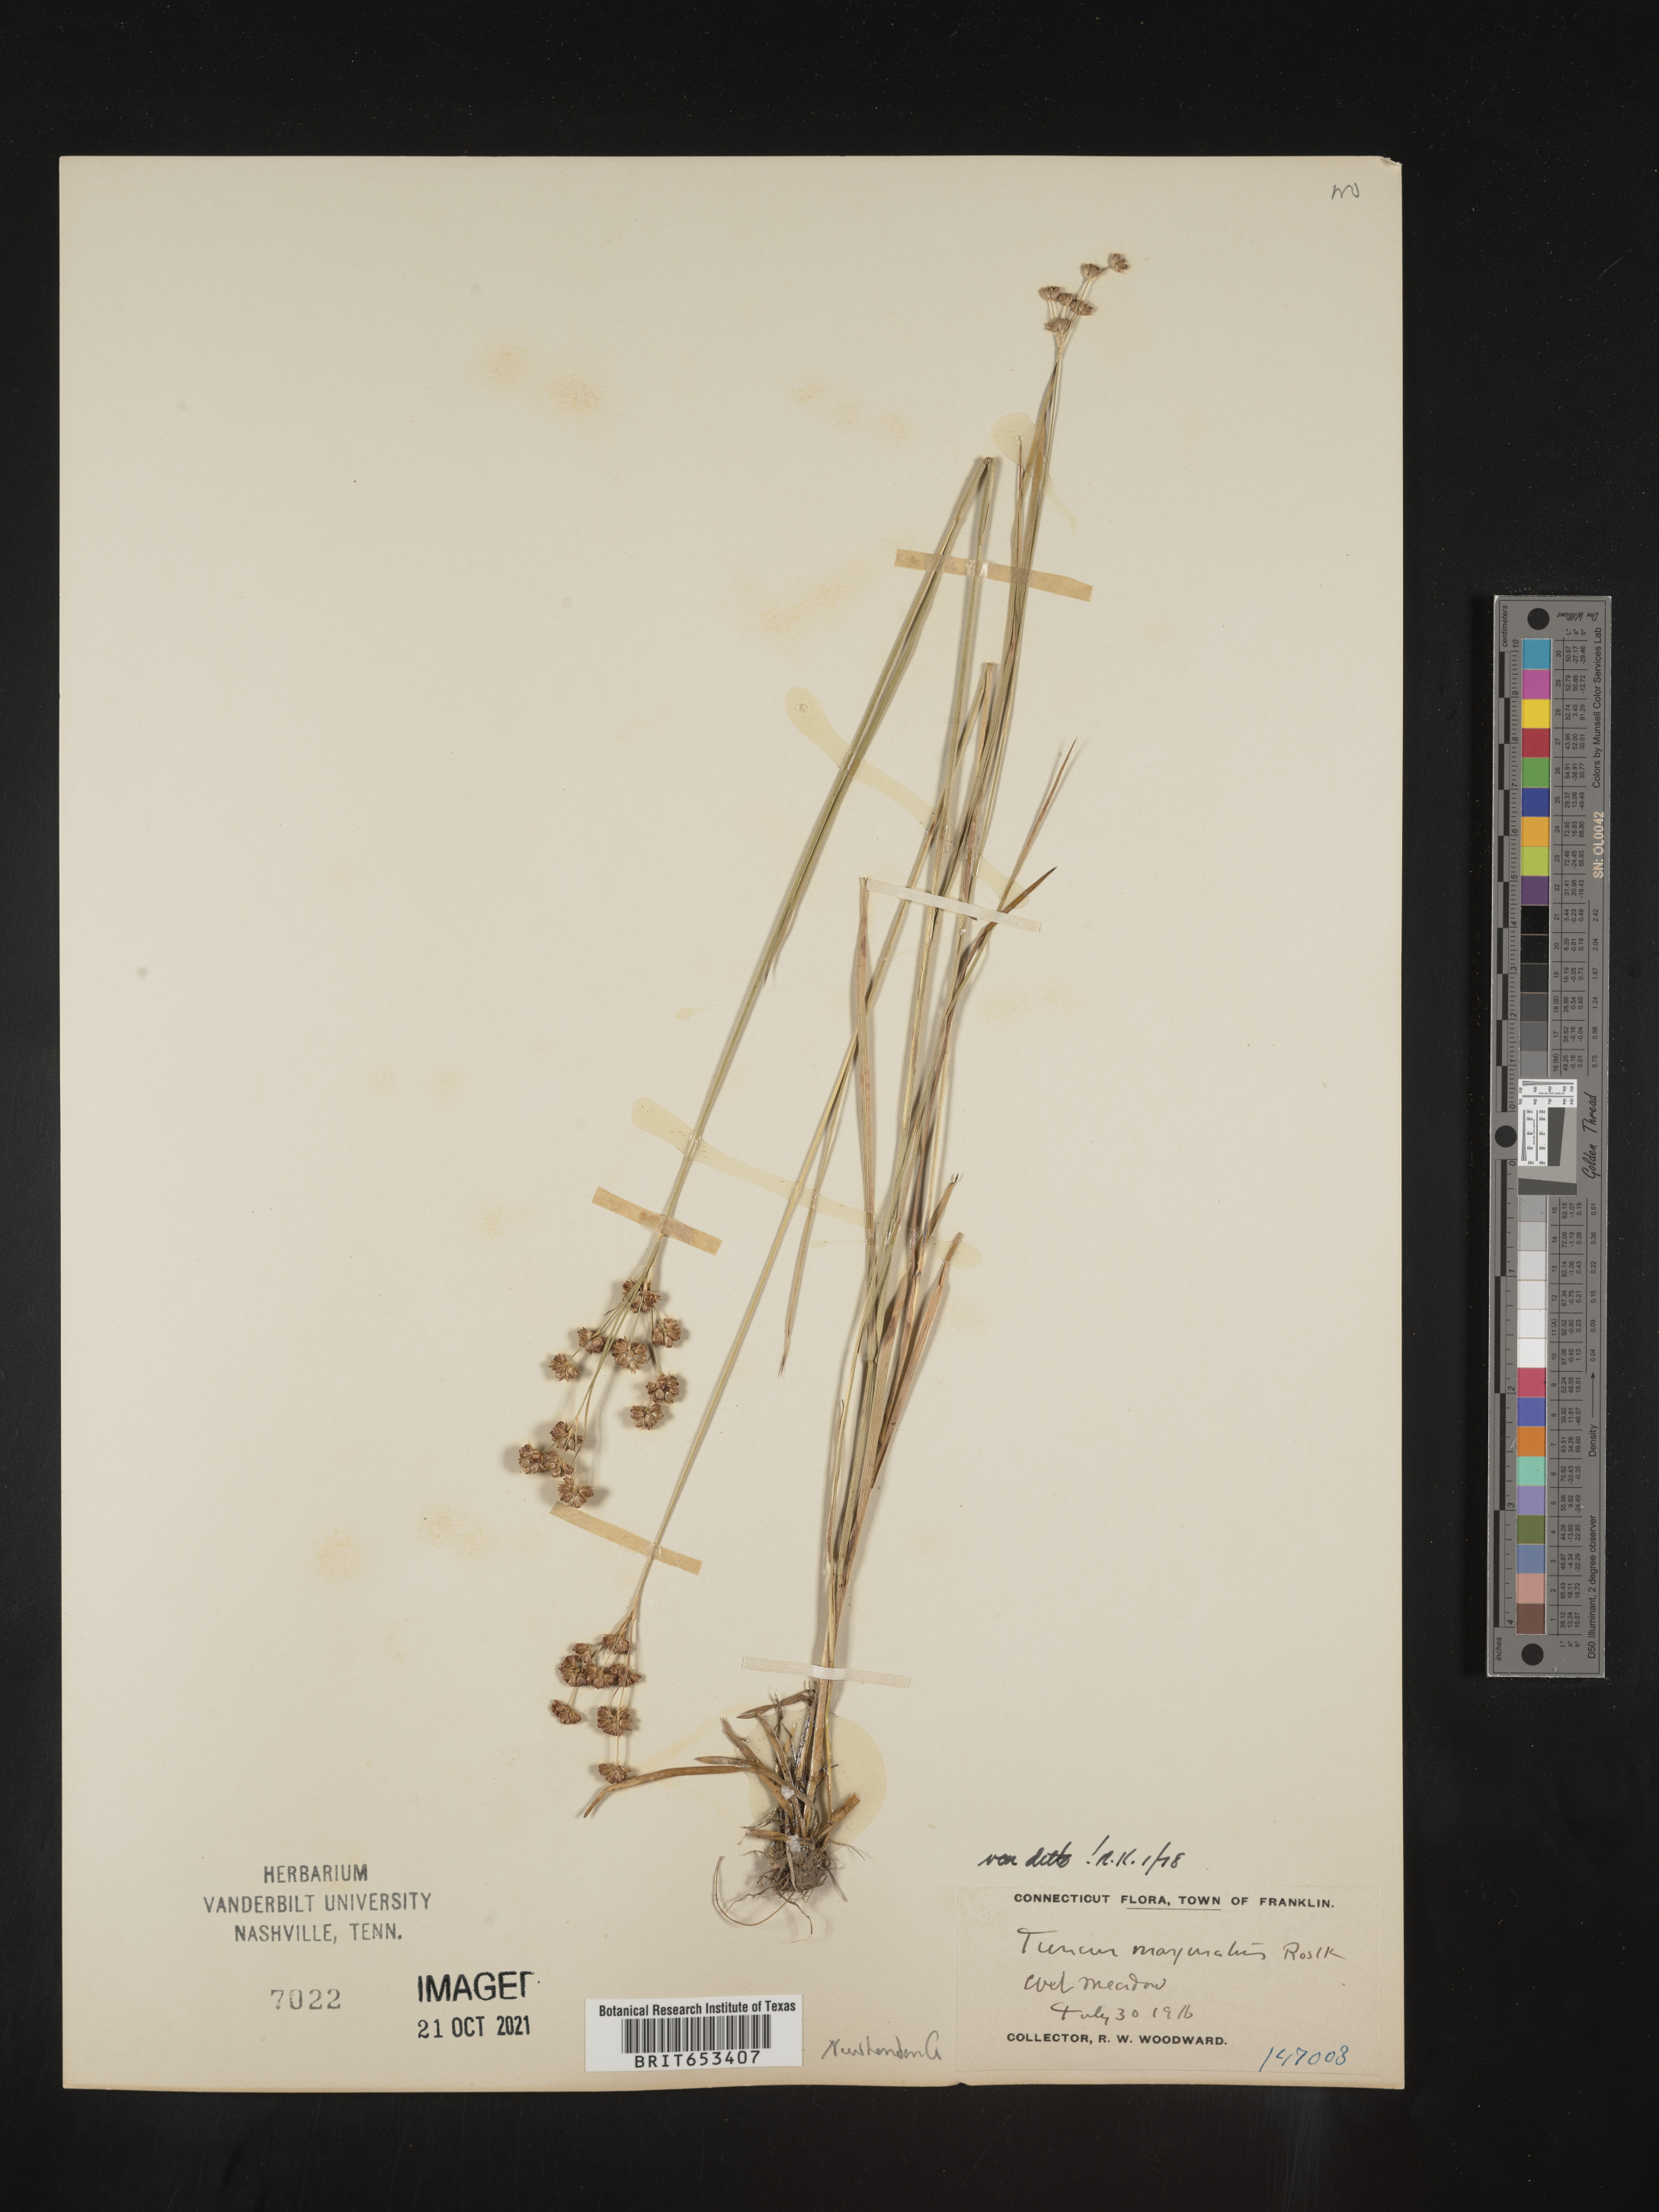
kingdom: Plantae
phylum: Tracheophyta
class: Liliopsida
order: Poales
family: Juncaceae
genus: Juncus
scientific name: Juncus marginatus
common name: Grass-leaf rush
